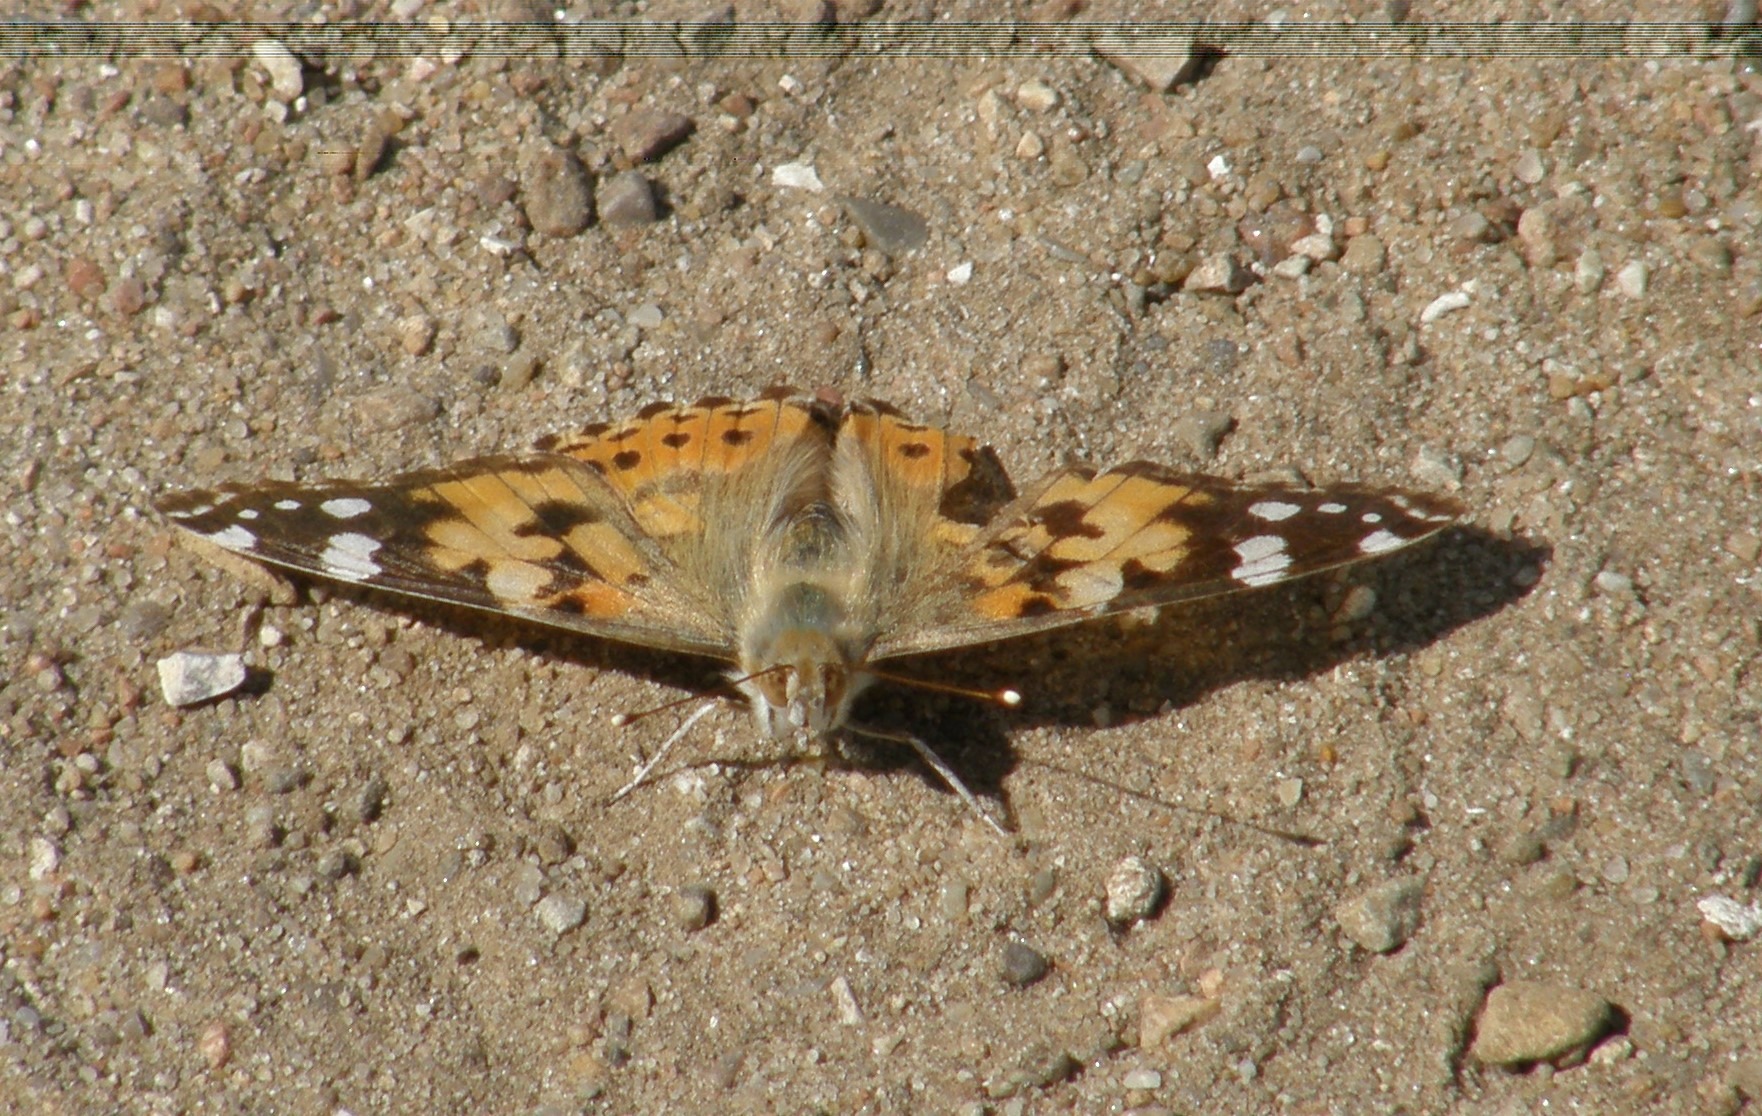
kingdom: Animalia
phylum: Arthropoda
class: Insecta
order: Lepidoptera
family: Nymphalidae
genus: Vanessa
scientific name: Vanessa cardui
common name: Tidselsommerfugl
